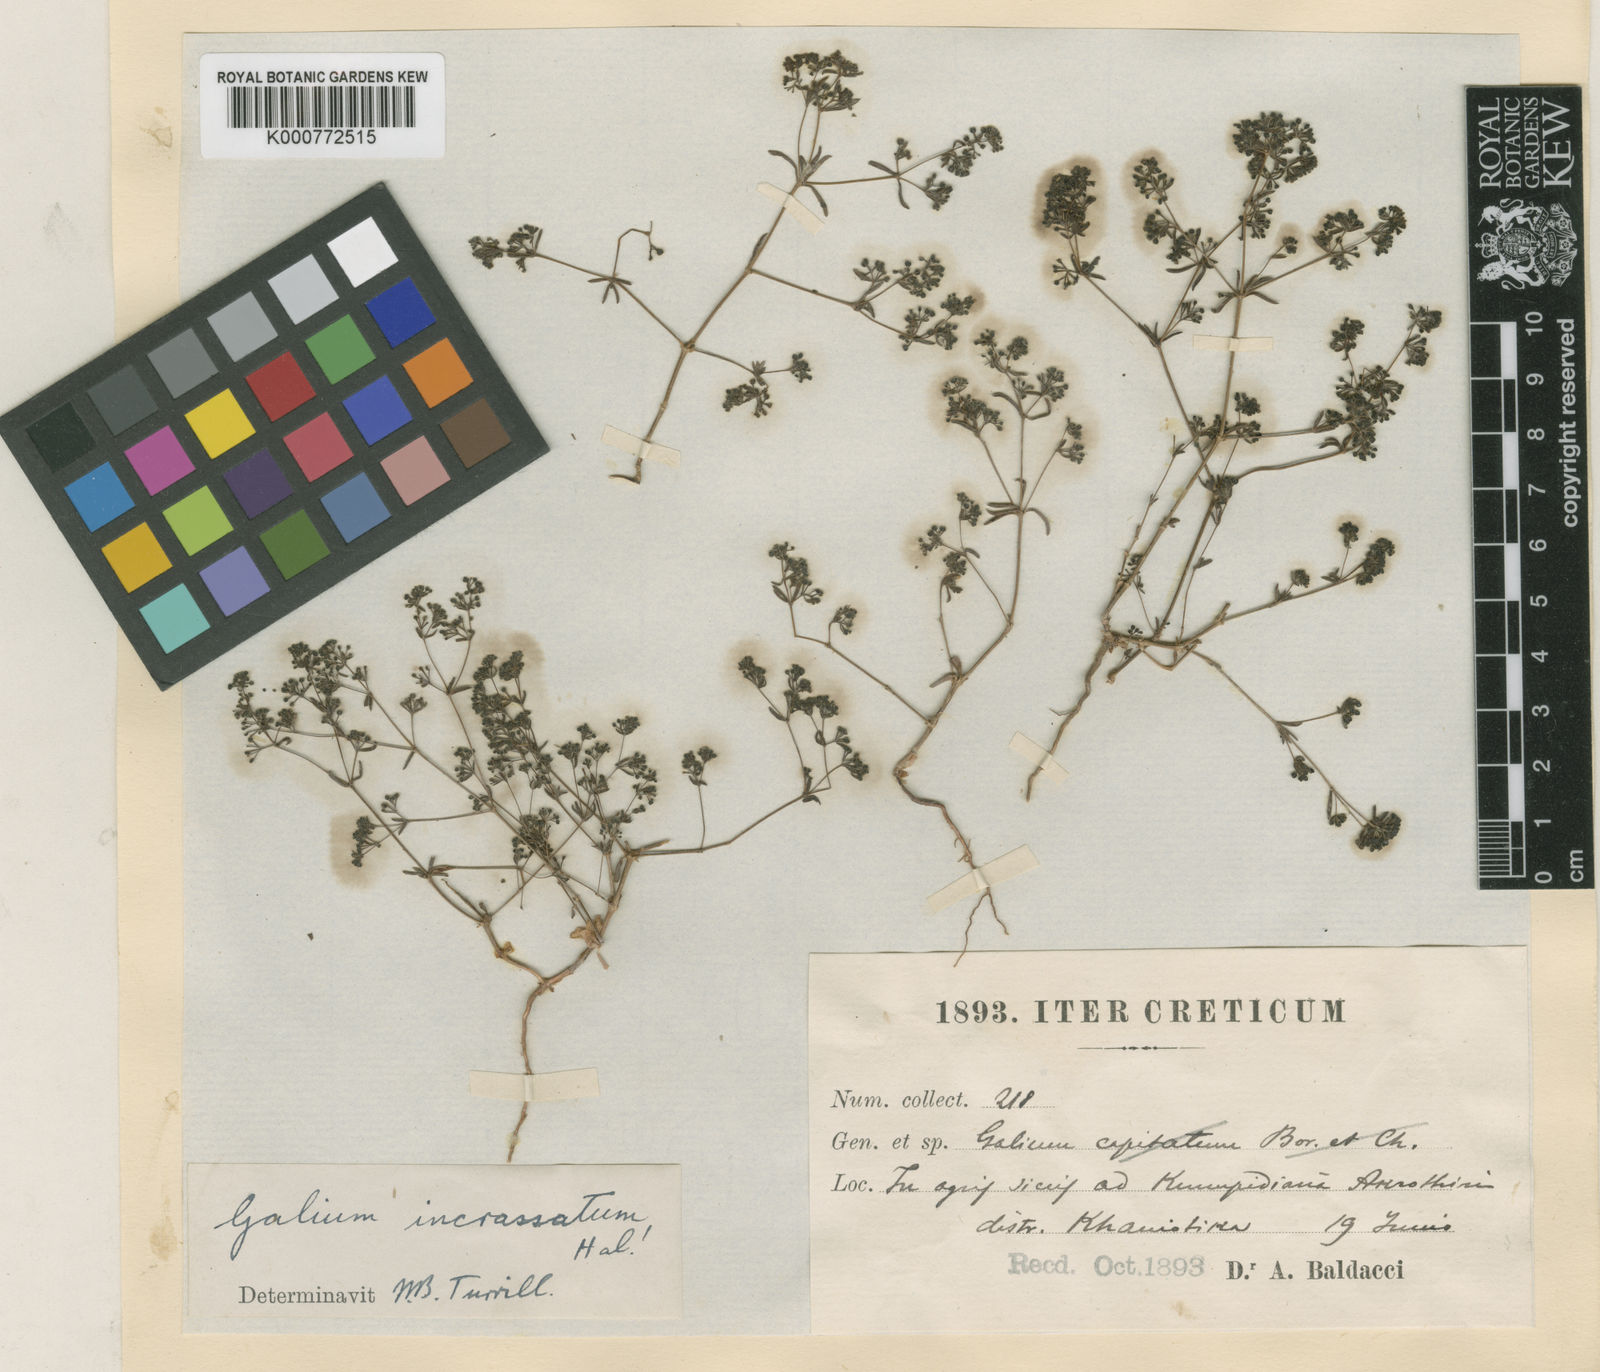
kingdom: Plantae
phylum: Tracheophyta
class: Magnoliopsida
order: Gentianales
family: Rubiaceae
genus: Galium
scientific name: Galium
